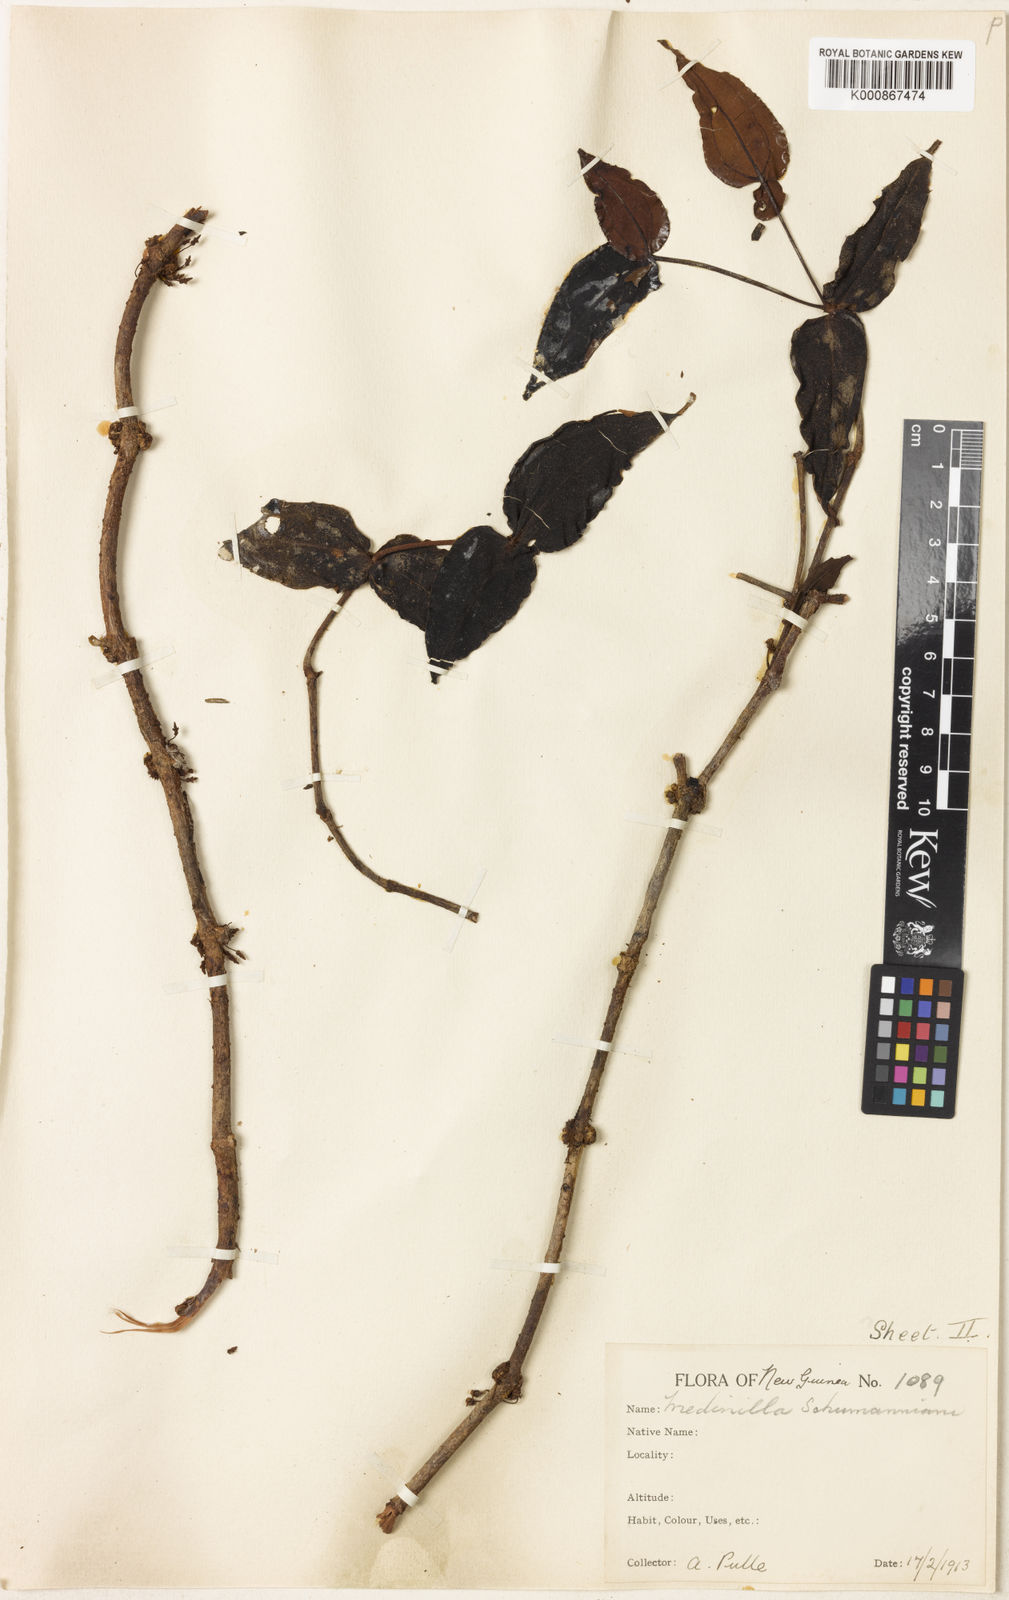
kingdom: Plantae
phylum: Tracheophyta
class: Magnoliopsida
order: Myrtales
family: Melastomataceae
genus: Medinilla
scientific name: Medinilla schumanniana
